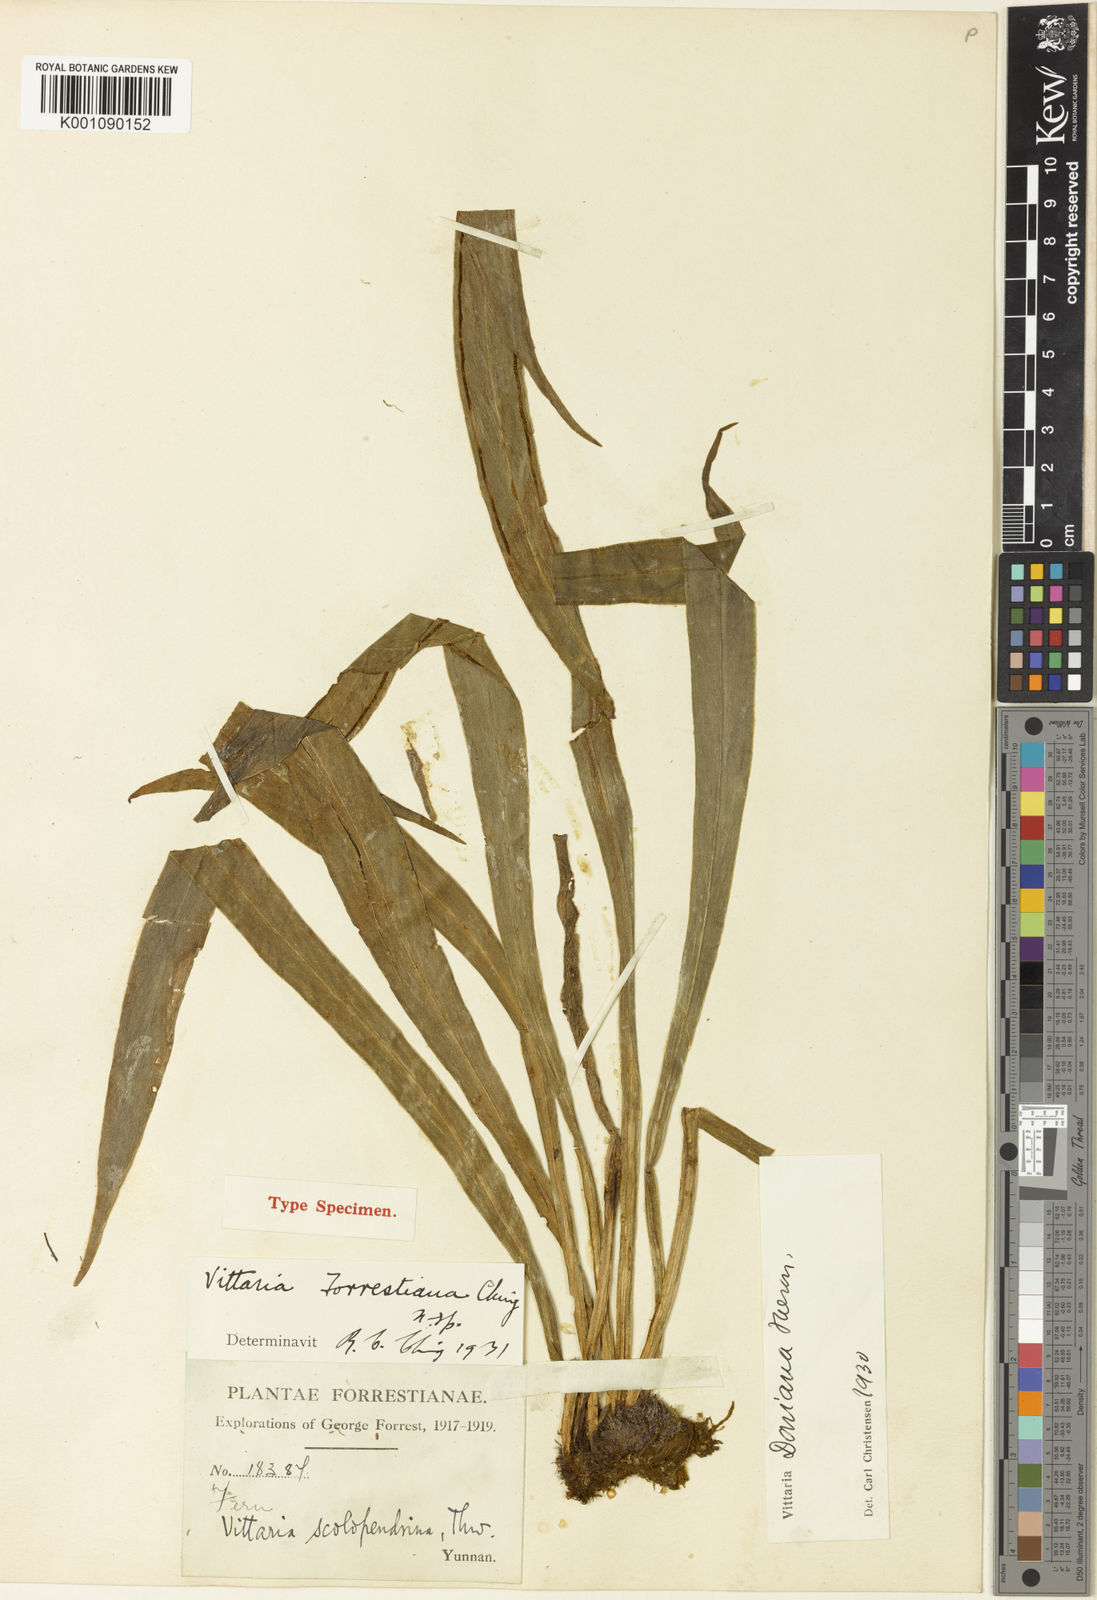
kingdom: Plantae
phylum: Tracheophyta
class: Polypodiopsida
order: Polypodiales
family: Pteridaceae
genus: Haplopteris
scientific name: Haplopteris taeniophylla
